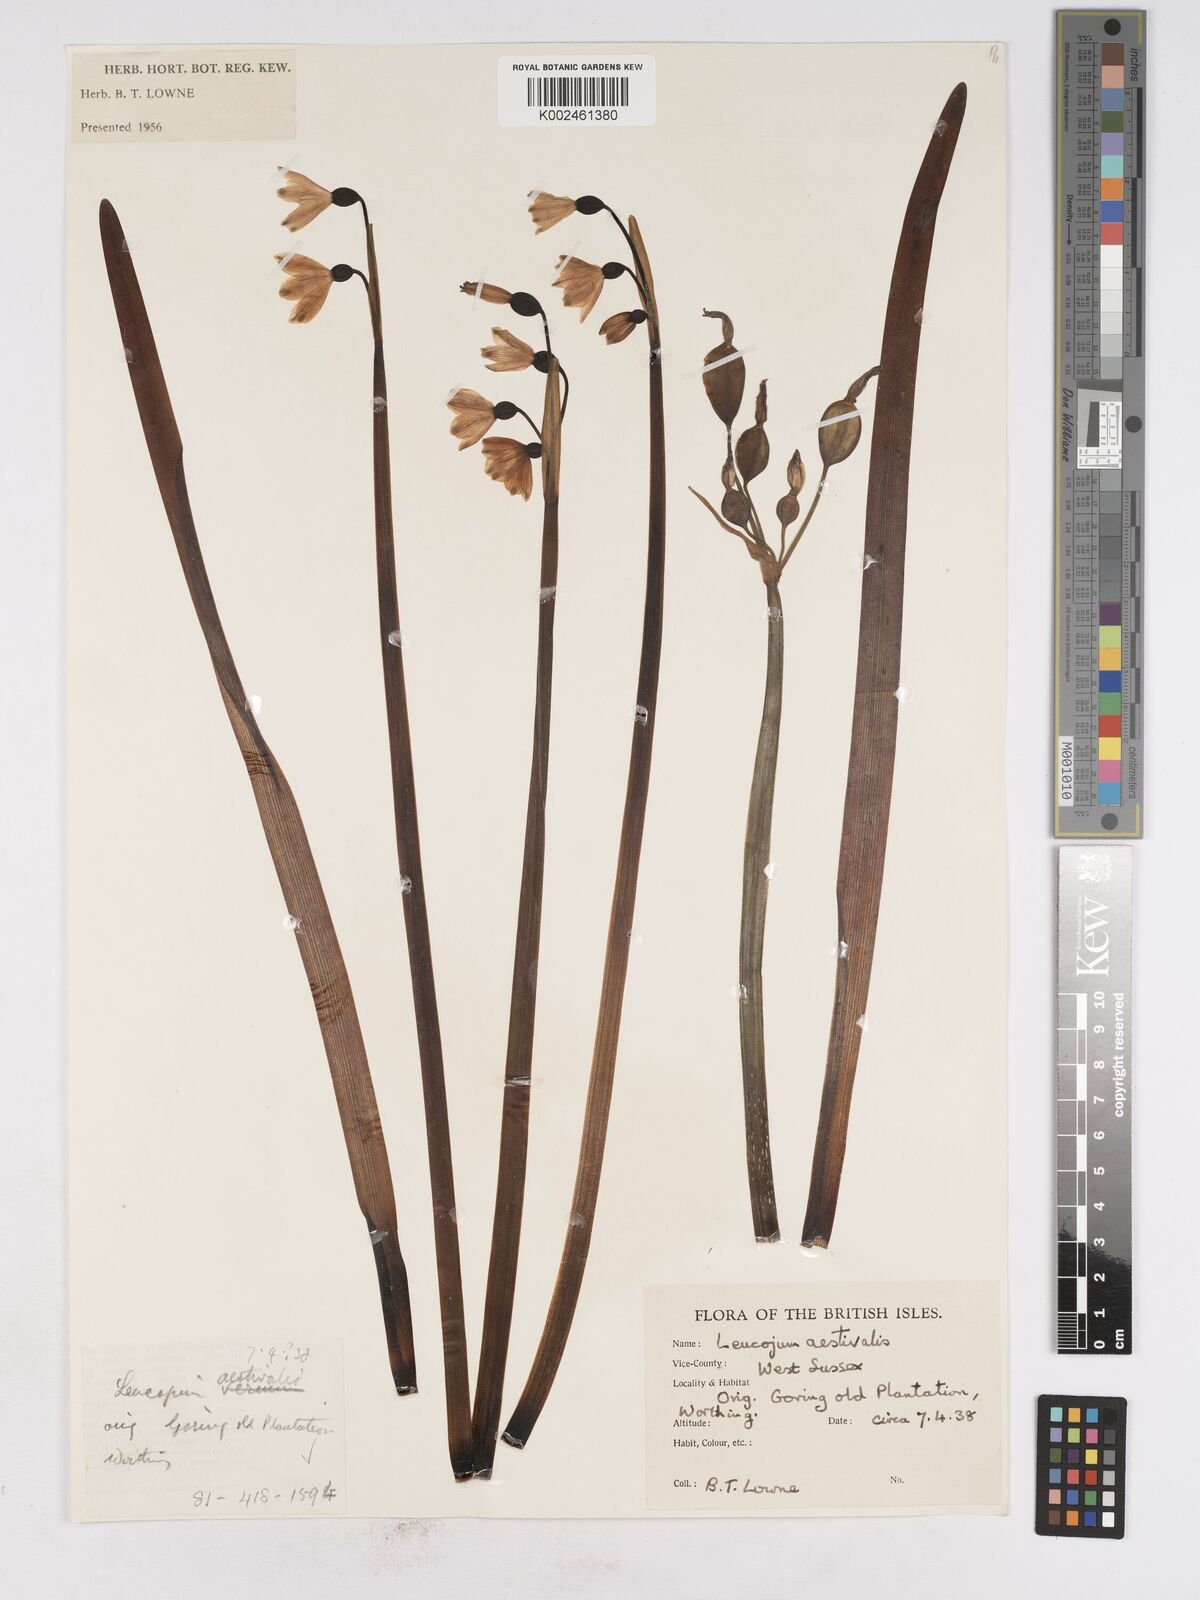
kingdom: Plantae
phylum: Tracheophyta
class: Liliopsida
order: Asparagales
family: Amaryllidaceae
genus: Leucojum
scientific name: Leucojum aestivum
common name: Summer snowflake
